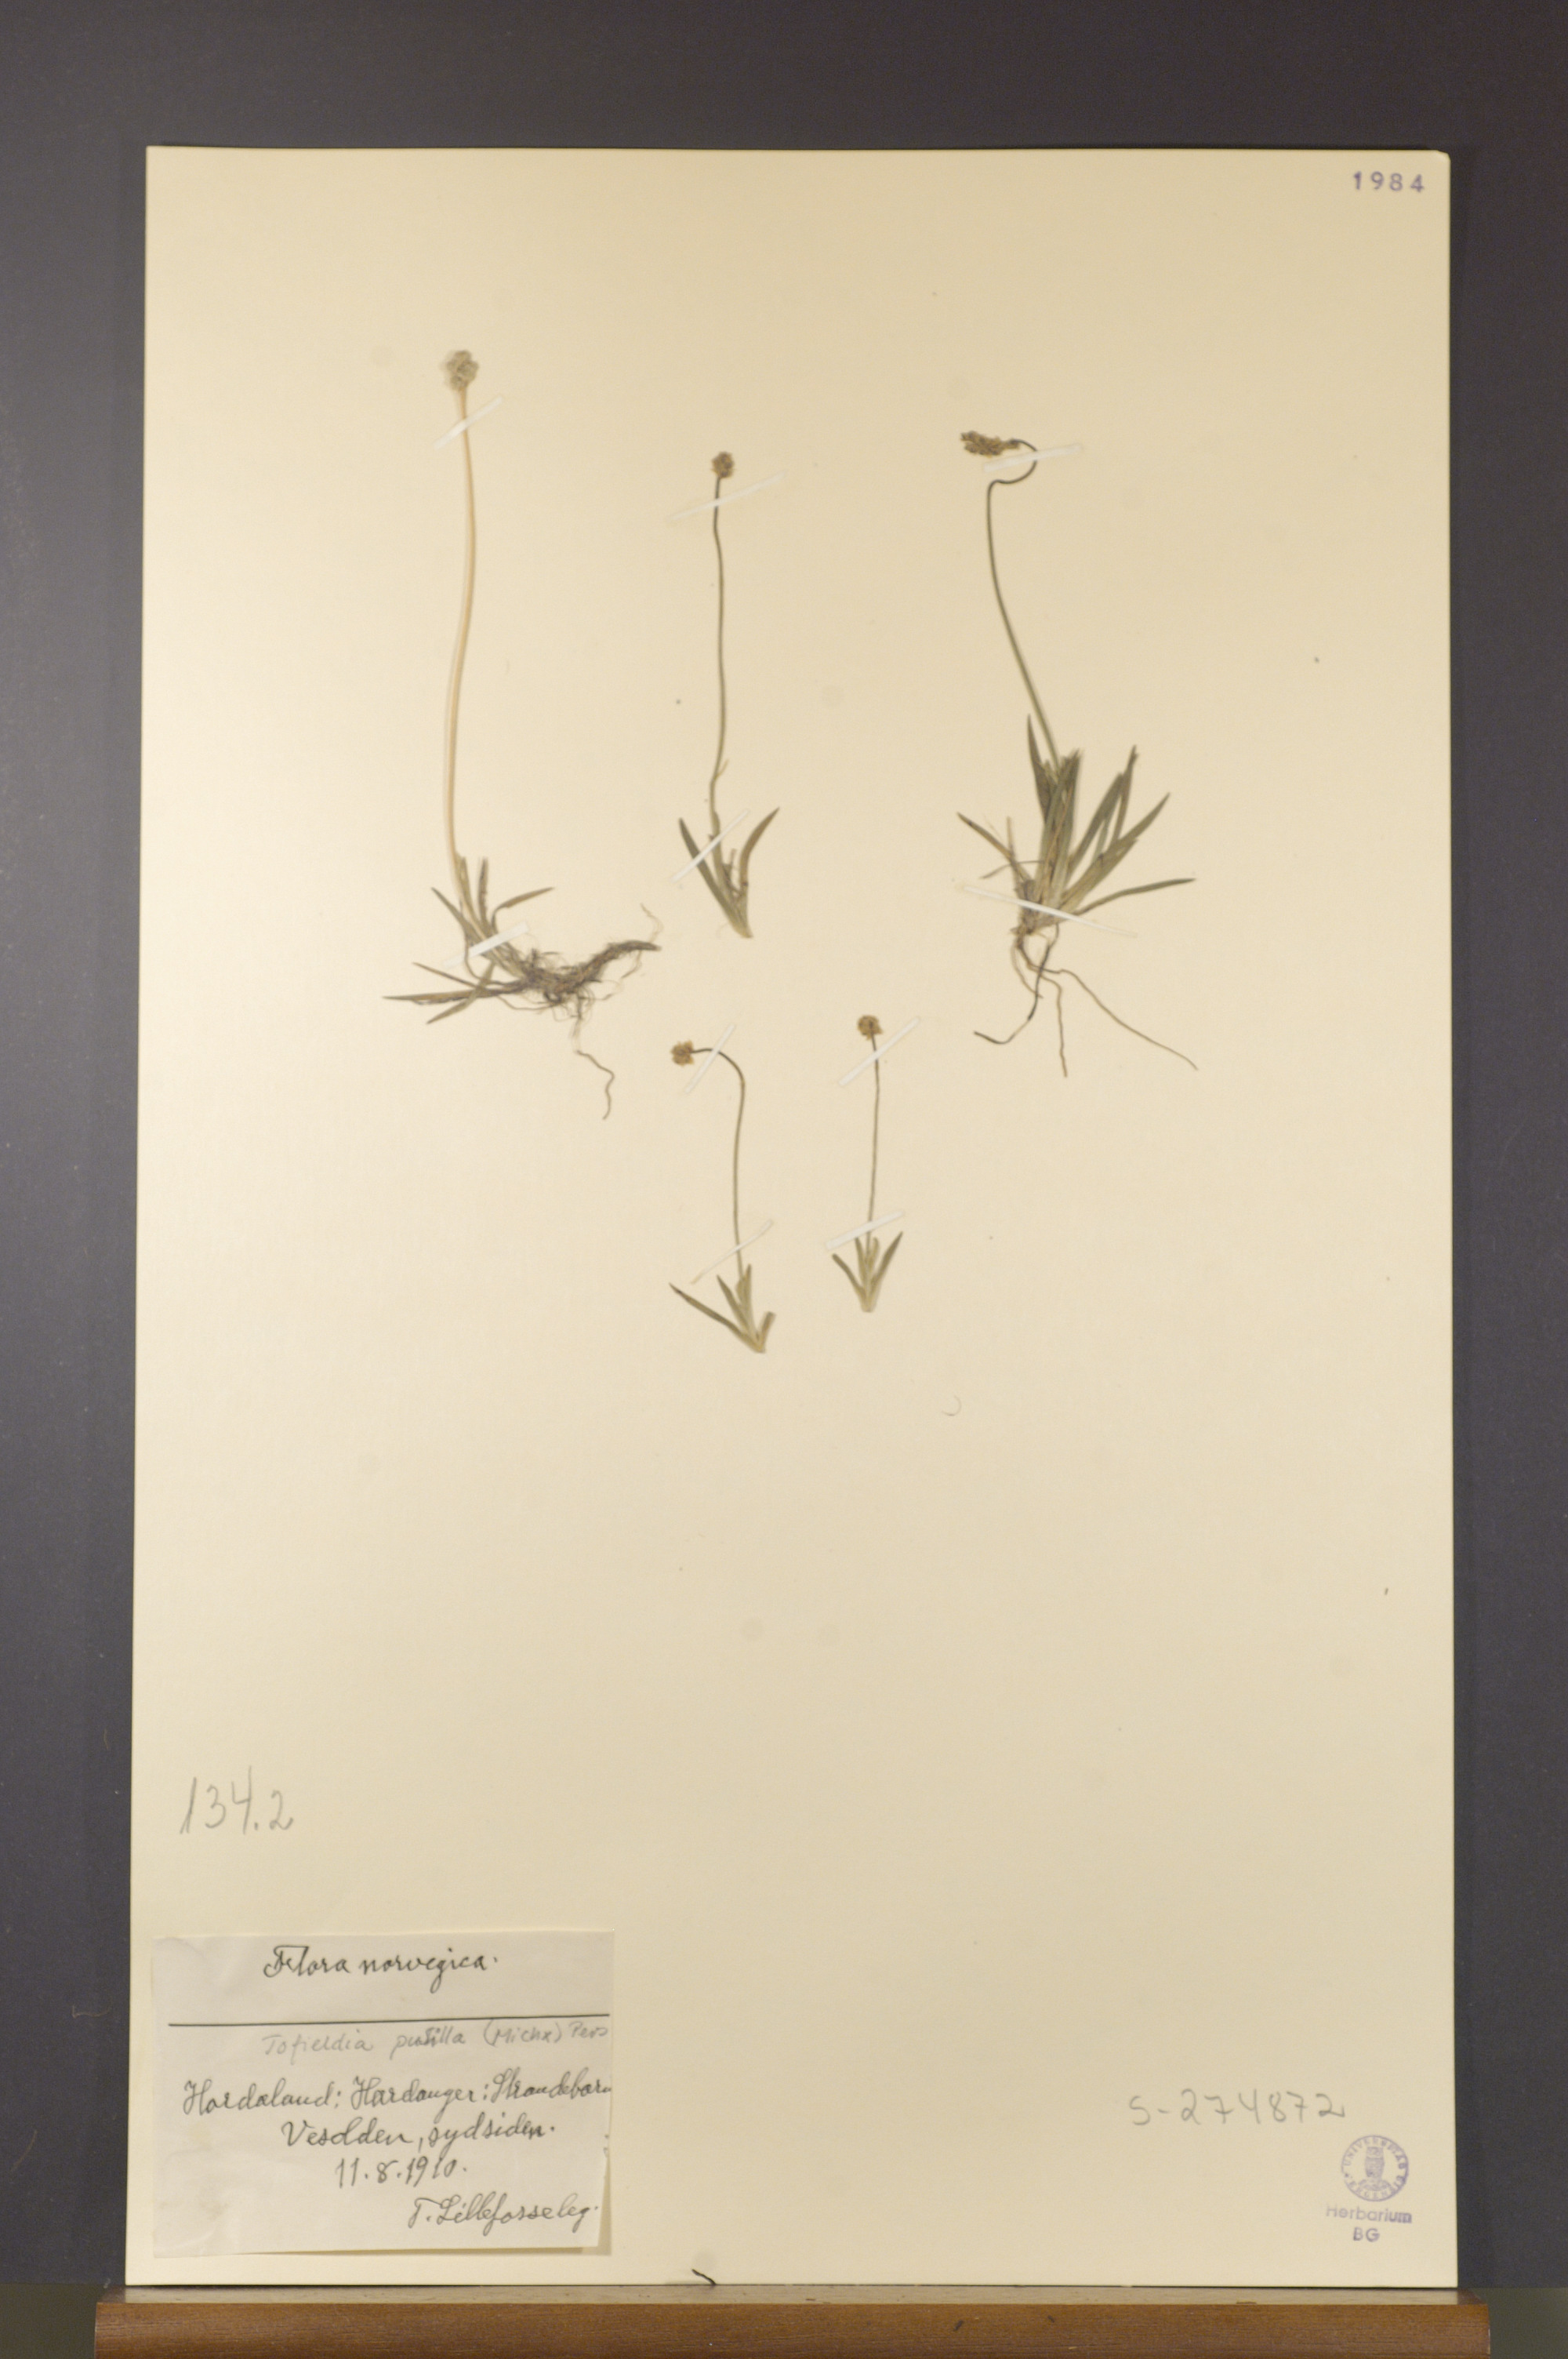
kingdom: Plantae
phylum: Tracheophyta
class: Liliopsida
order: Alismatales
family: Tofieldiaceae
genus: Tofieldia
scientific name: Tofieldia pusilla
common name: Scottish false asphodel
